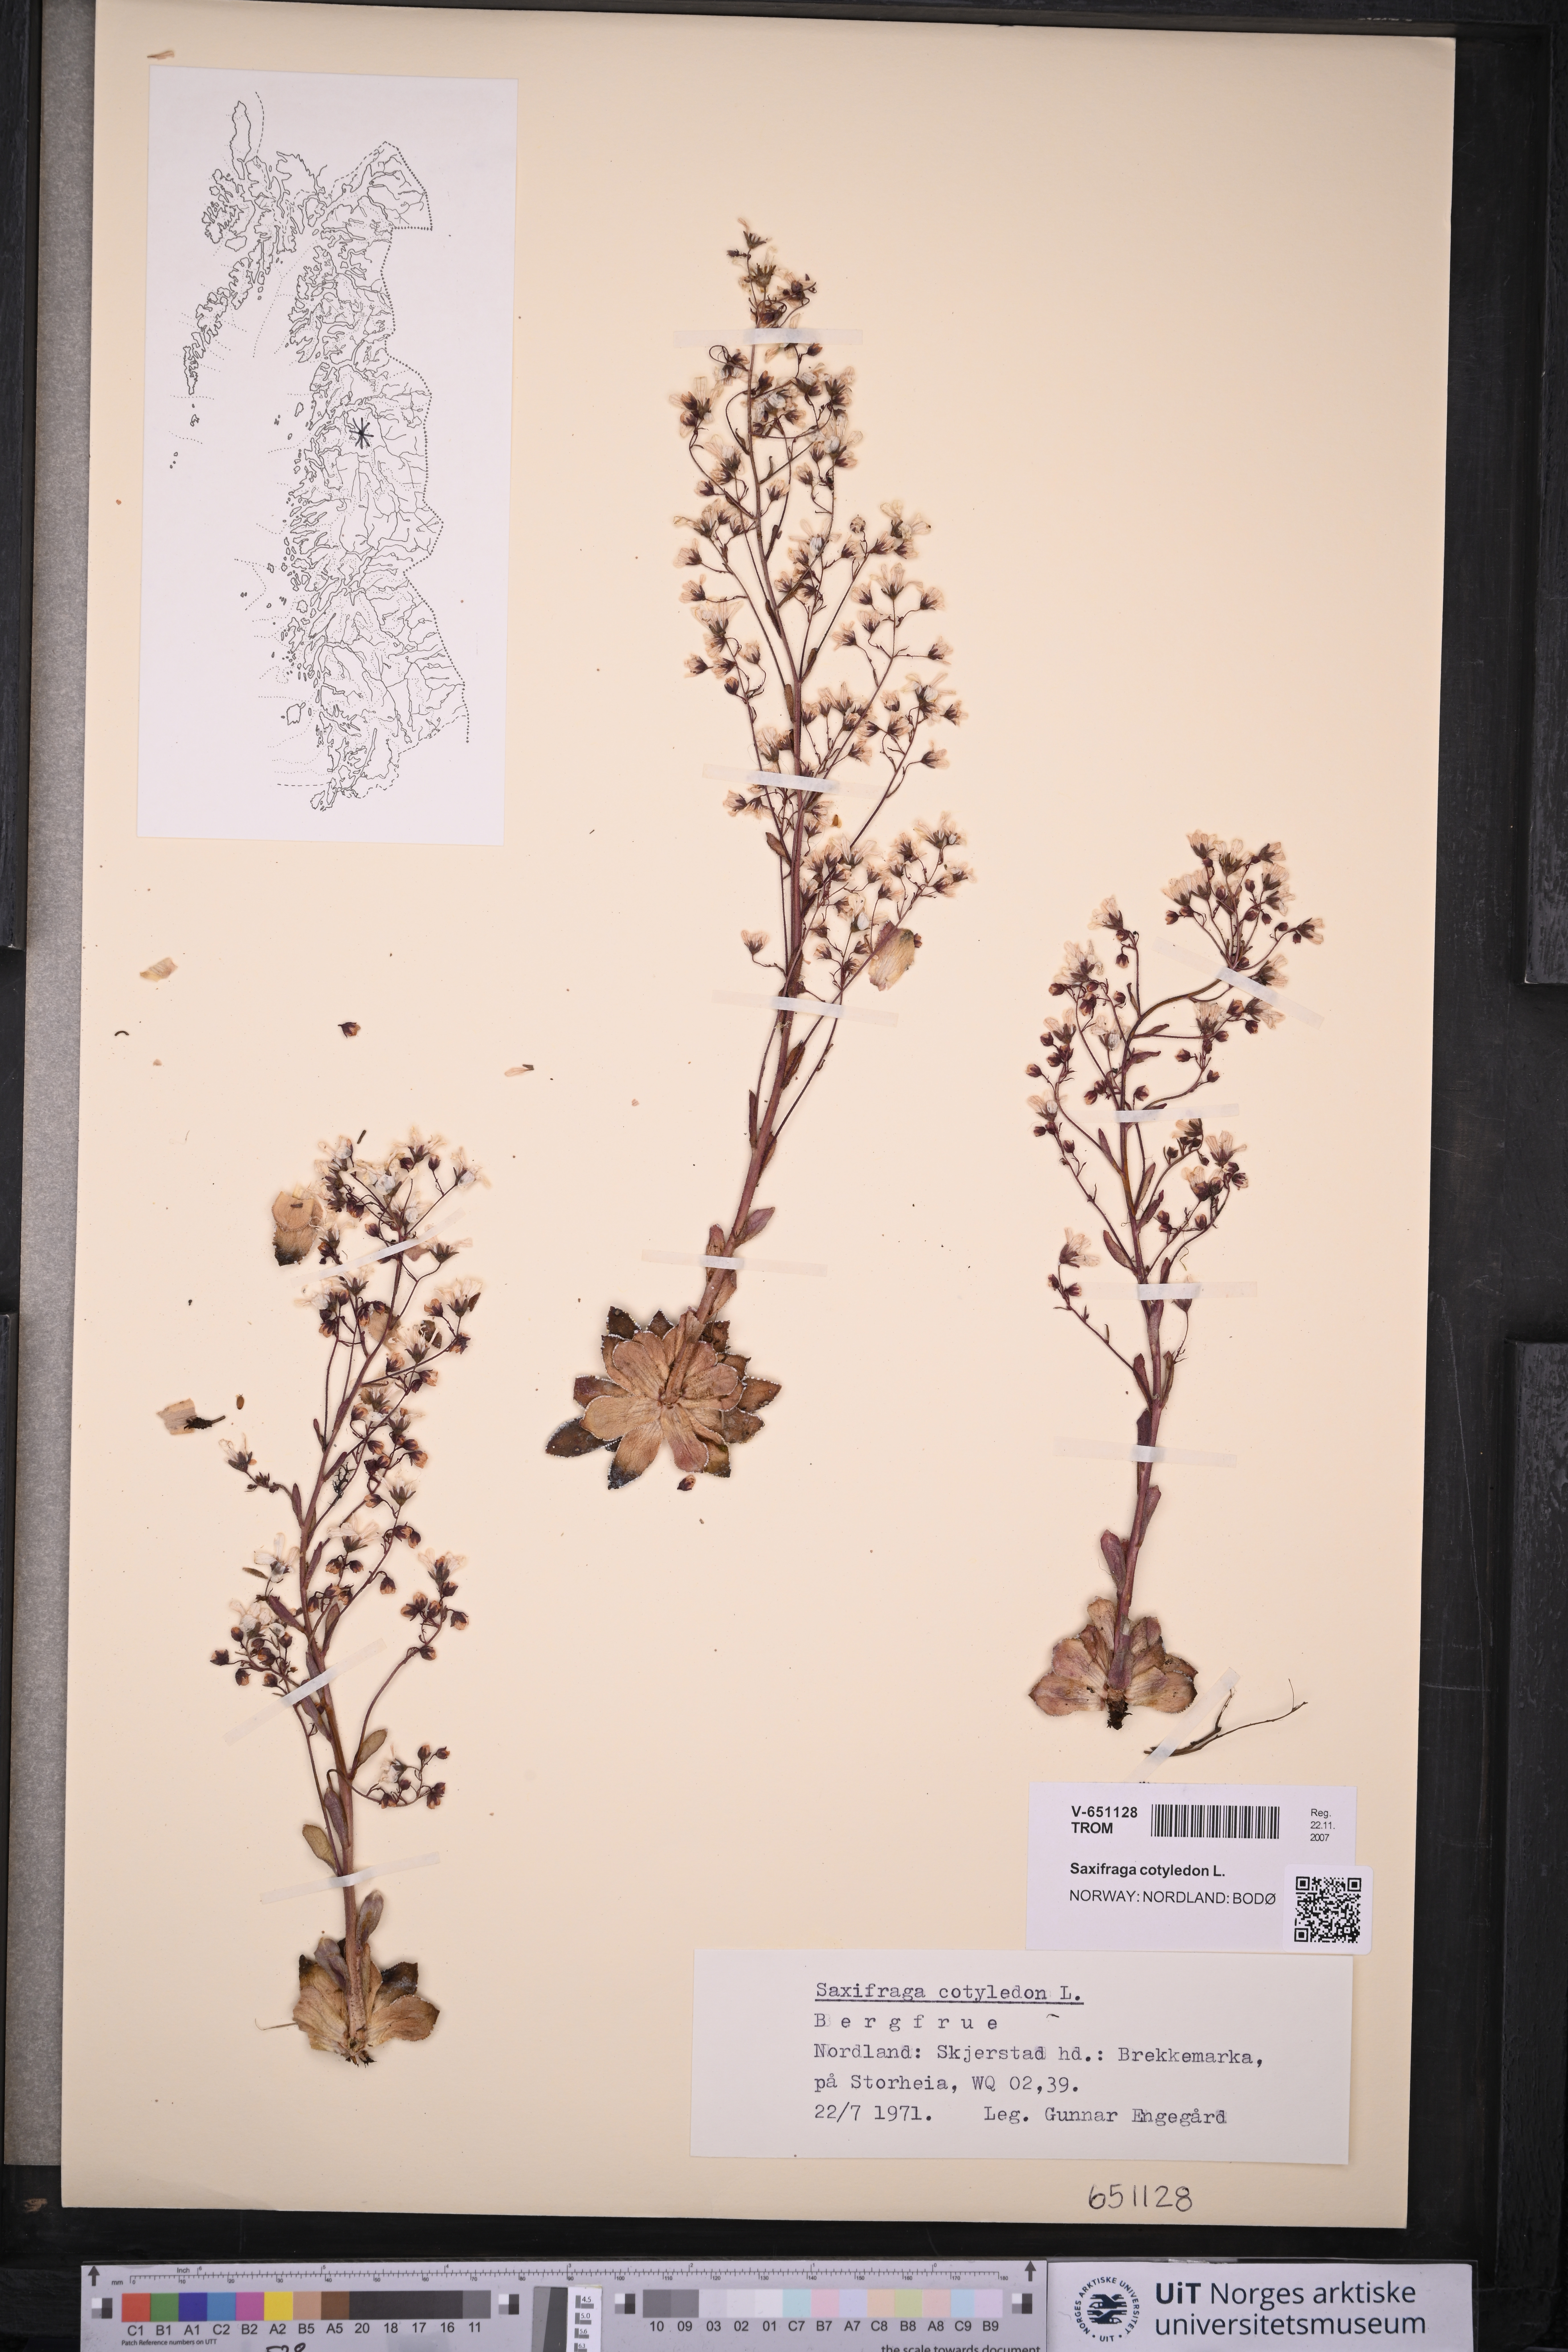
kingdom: Plantae
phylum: Tracheophyta
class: Magnoliopsida
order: Saxifragales
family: Saxifragaceae
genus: Saxifraga
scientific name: Saxifraga cotyledon
